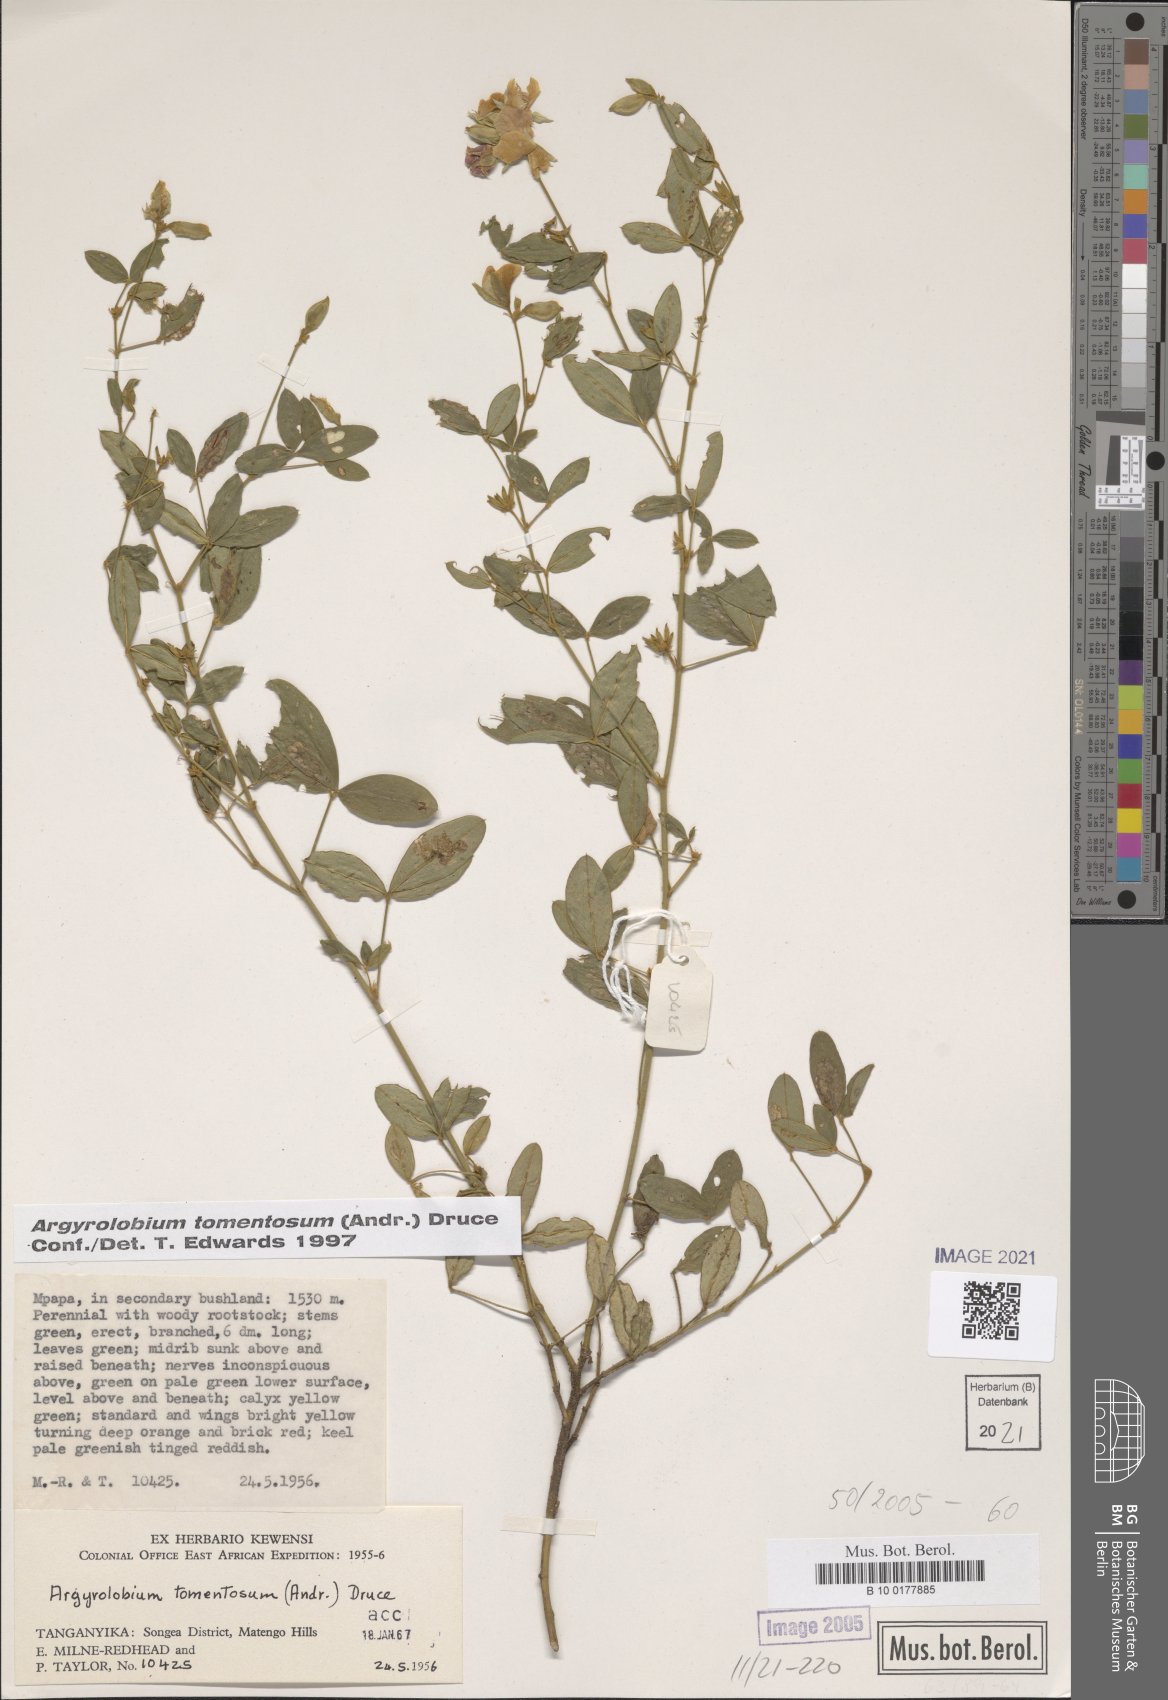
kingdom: Plantae
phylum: Tracheophyta
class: Magnoliopsida
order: Fabales
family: Fabaceae
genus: Argyrolobium
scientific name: Argyrolobium tomentosum
